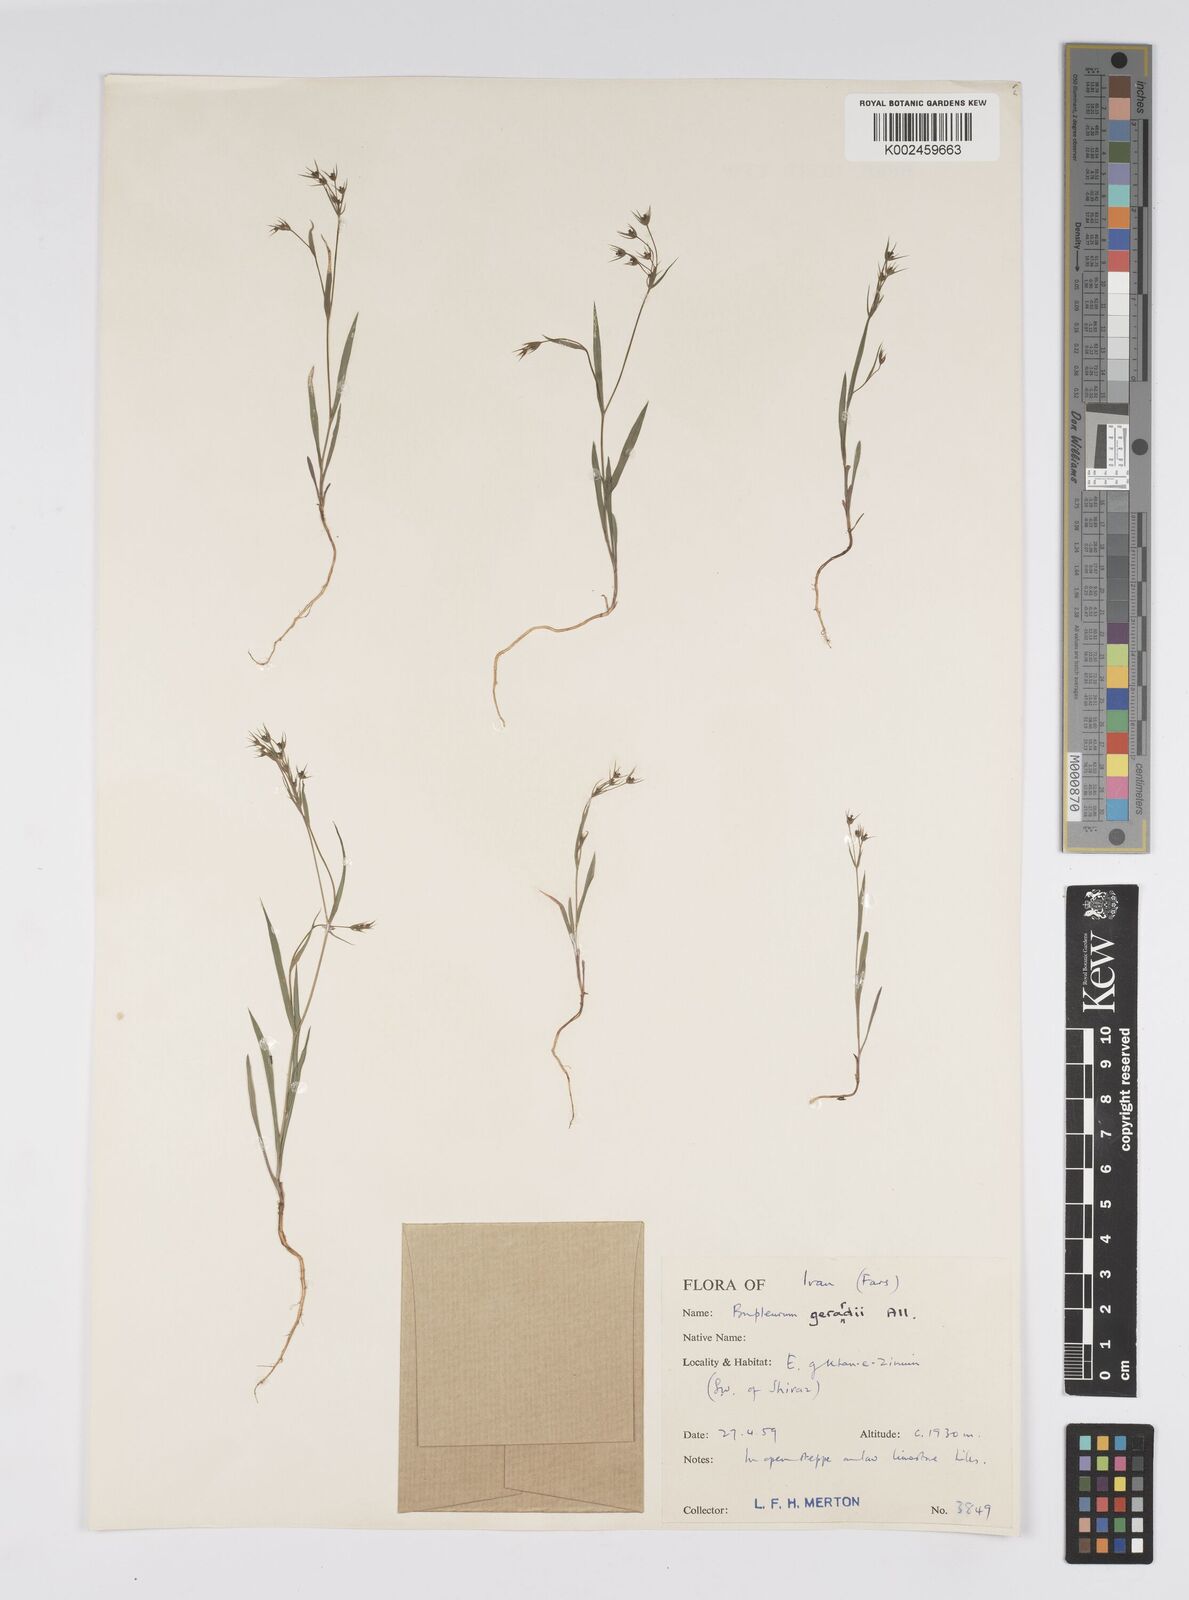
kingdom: Plantae
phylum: Tracheophyta
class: Magnoliopsida
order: Apiales
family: Apiaceae
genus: Bupleurum
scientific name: Bupleurum gerardi
